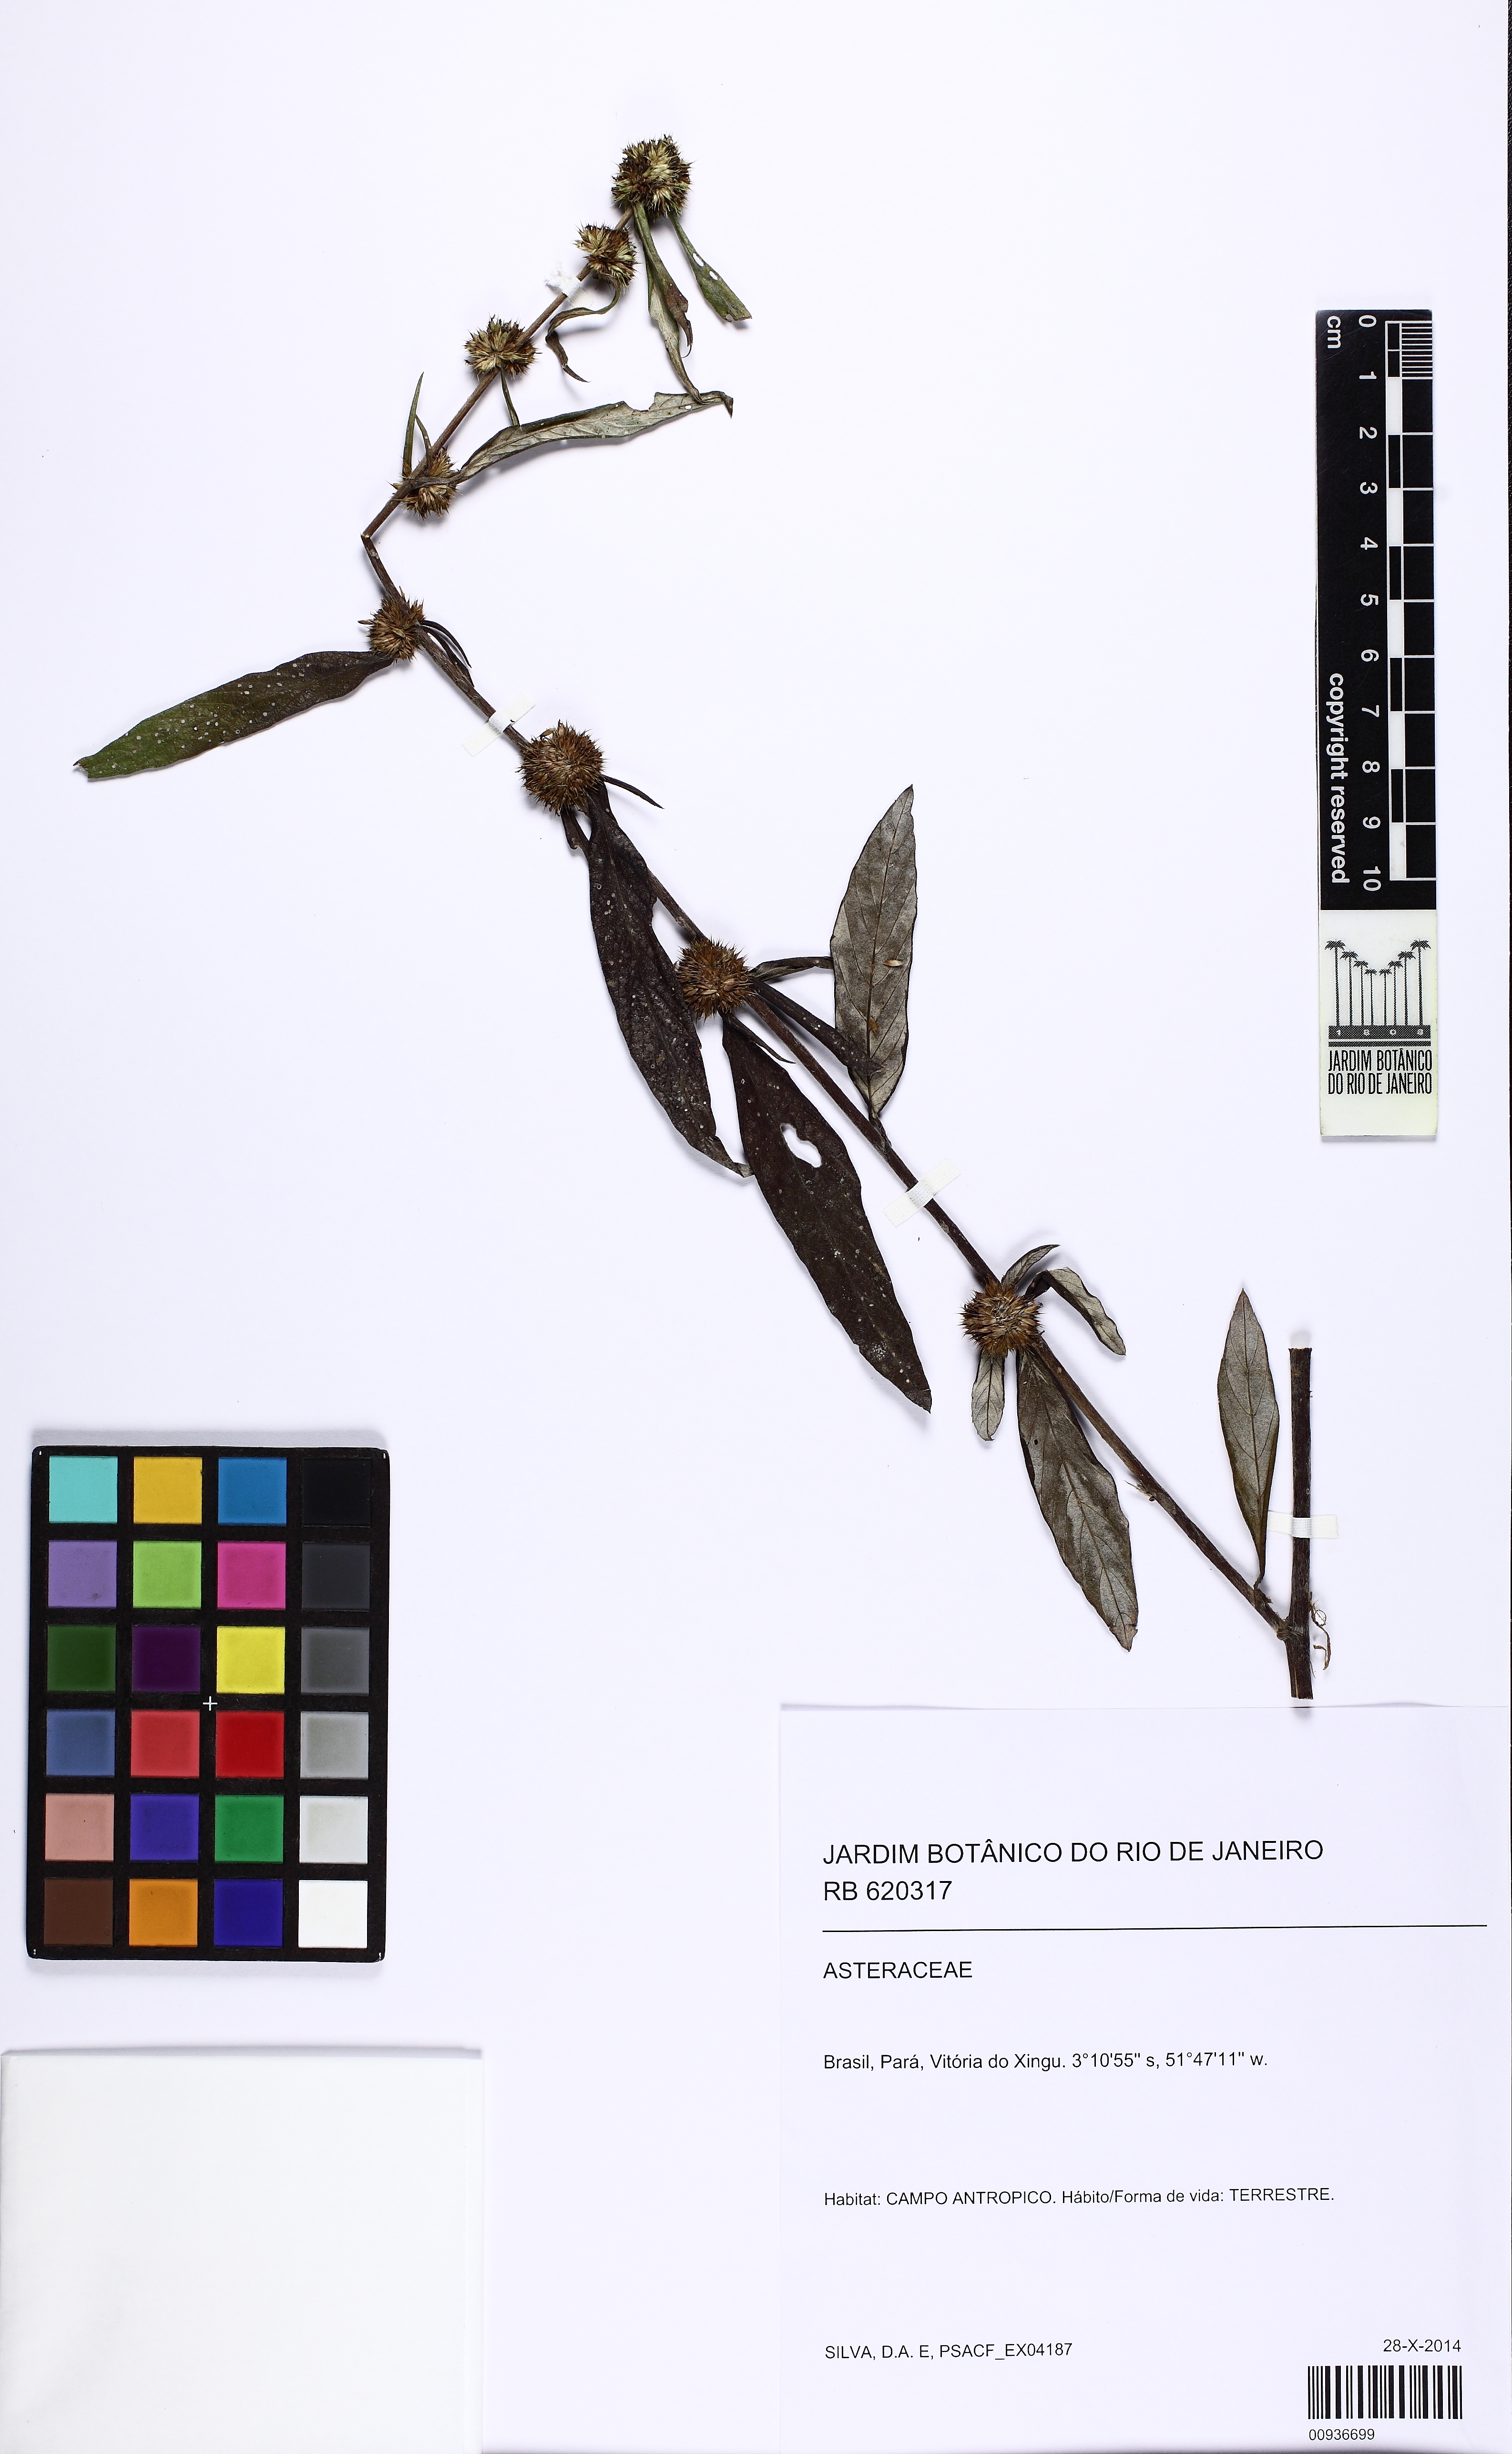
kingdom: Plantae
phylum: Tracheophyta
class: Magnoliopsida
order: Asterales
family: Asteraceae
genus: Rolandra
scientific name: Rolandra fruticosa
